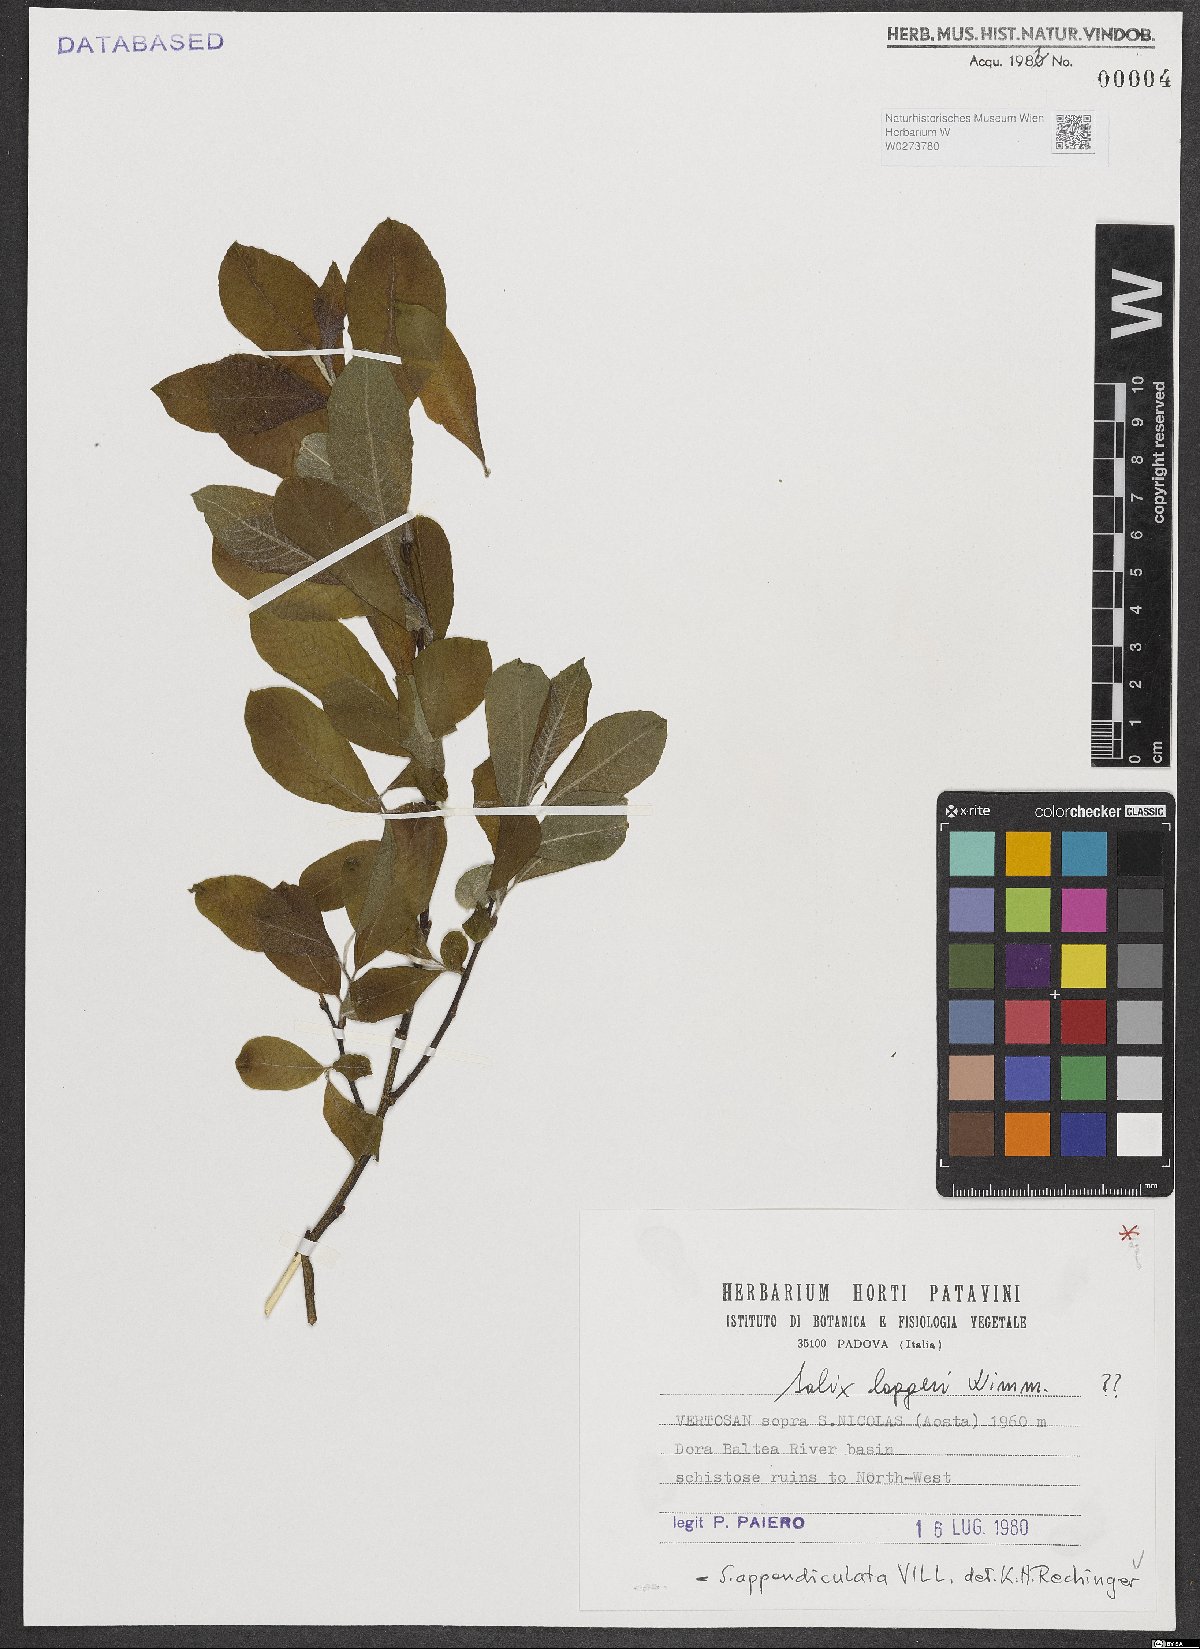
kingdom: Plantae
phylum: Tracheophyta
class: Magnoliopsida
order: Malpighiales
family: Salicaceae
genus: Salix
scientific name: Salix appendiculata
